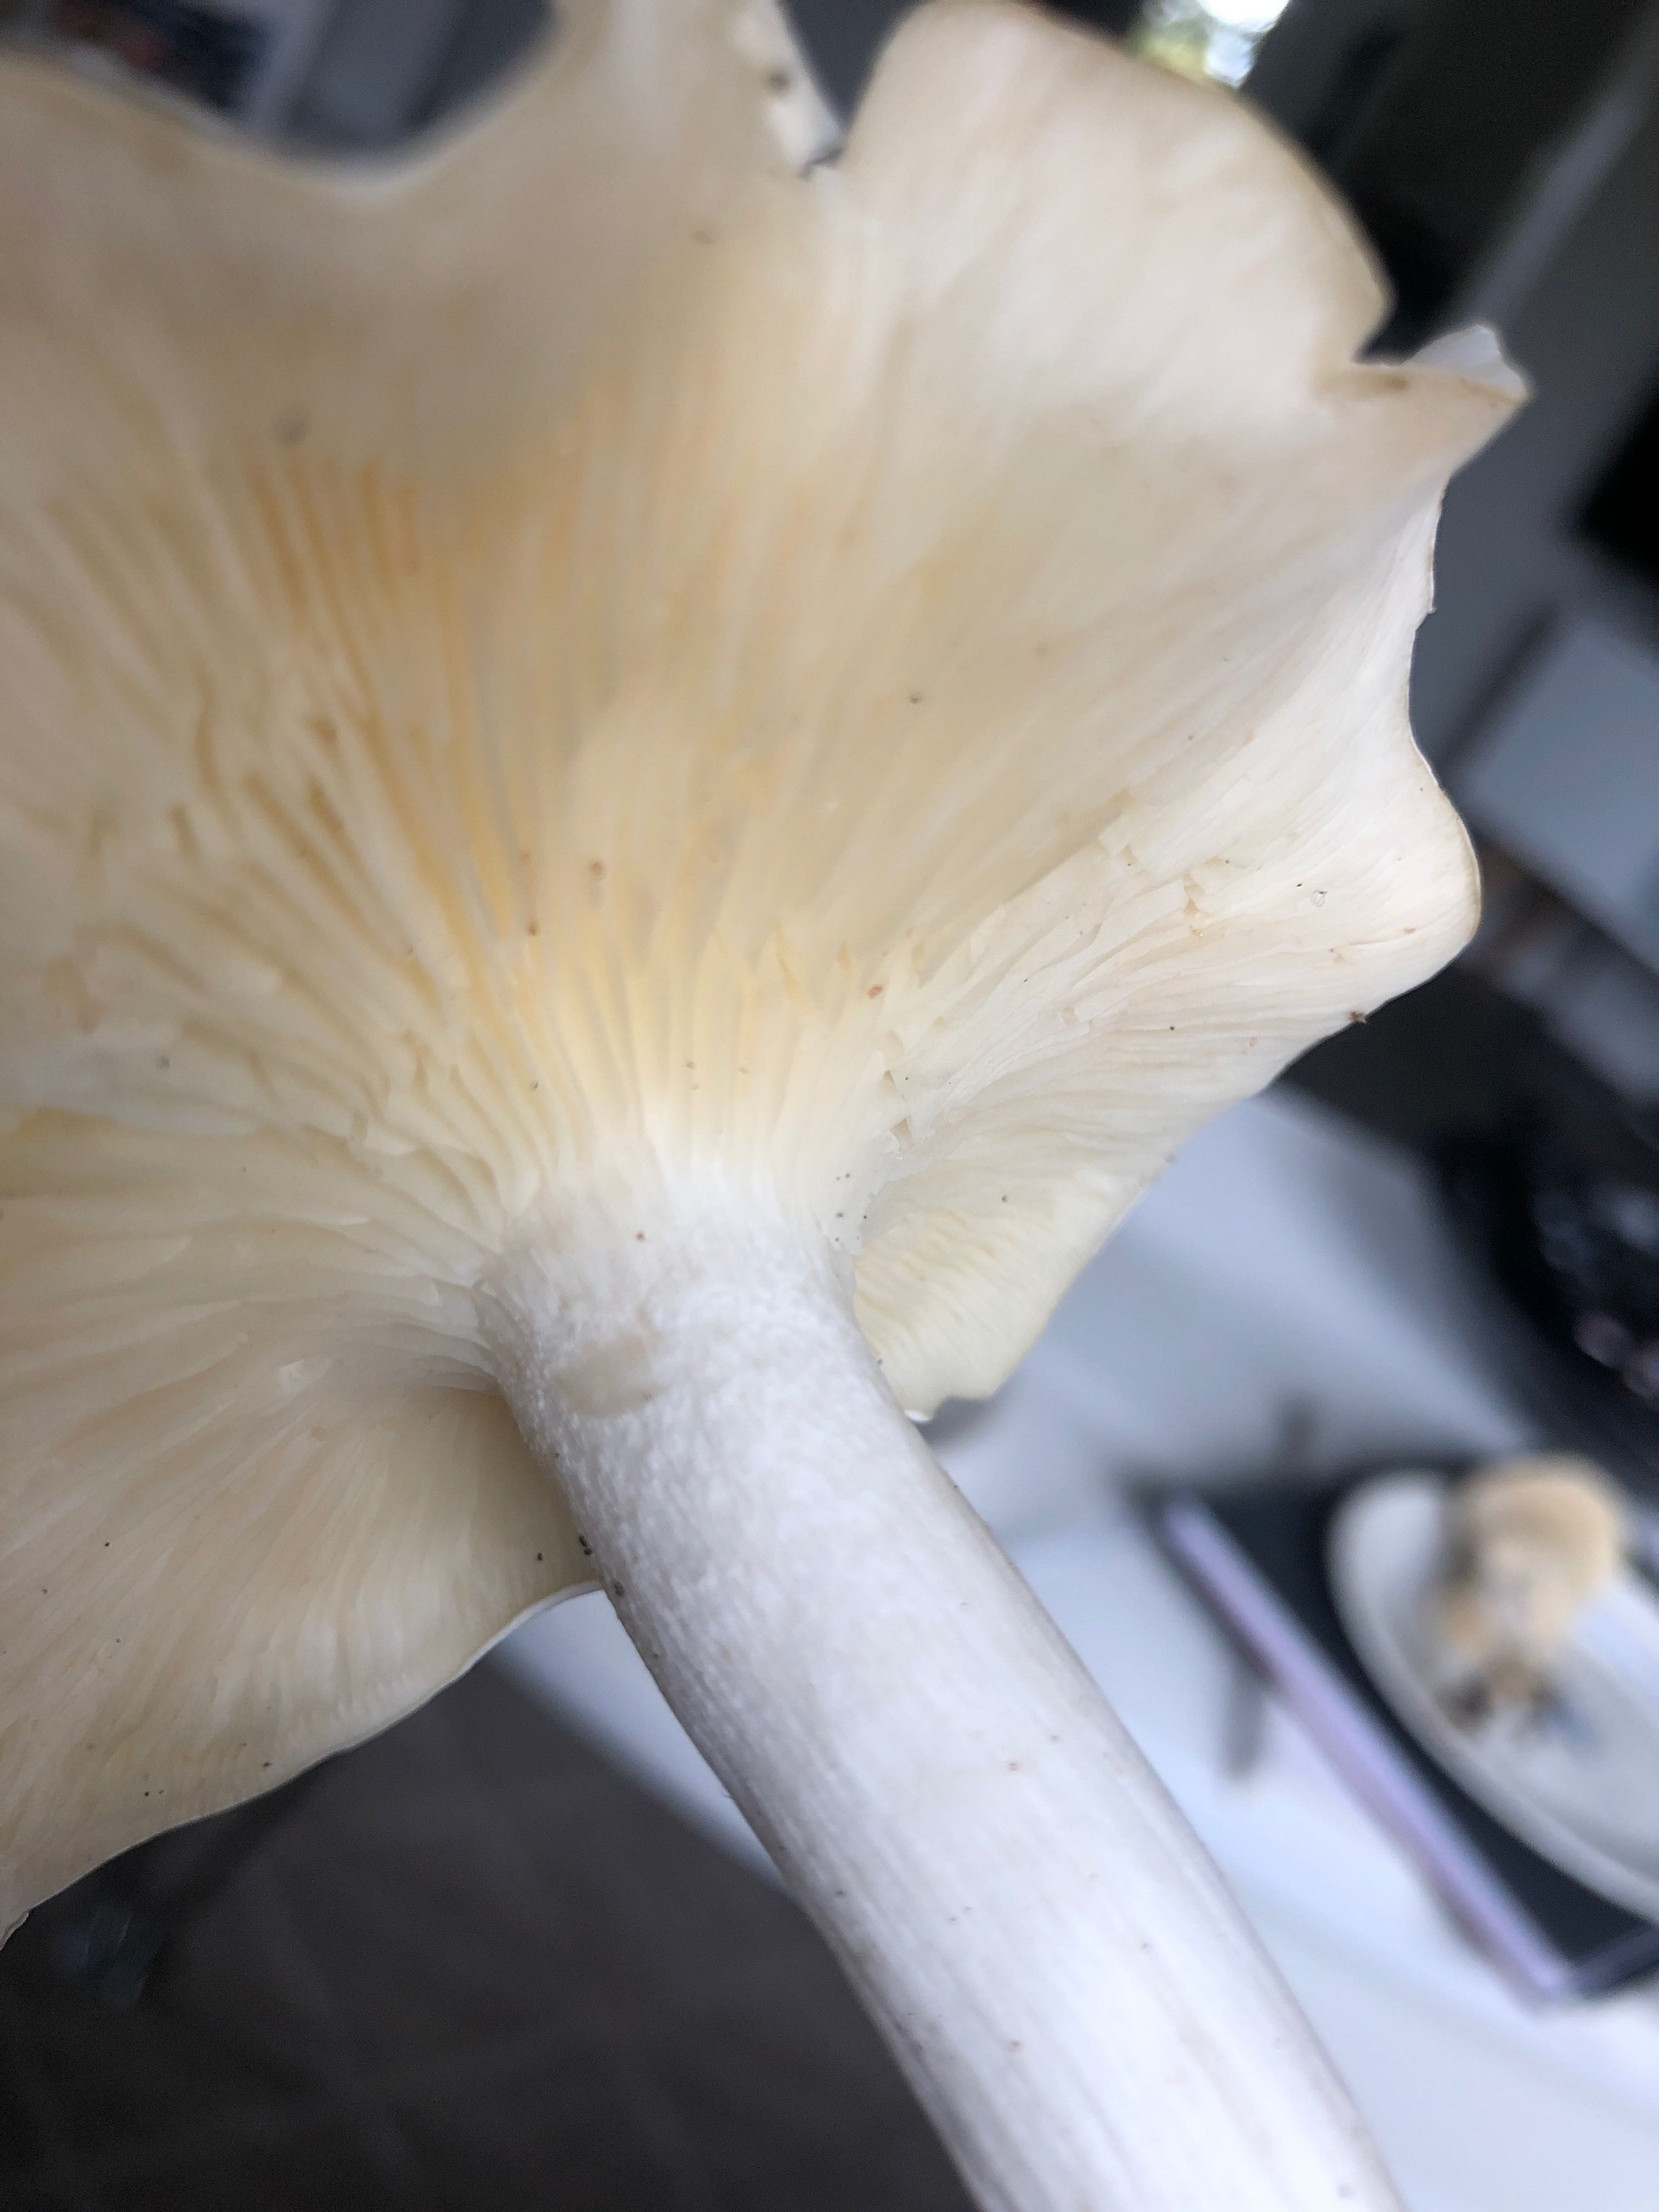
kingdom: Fungi
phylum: Basidiomycota
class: Agaricomycetes
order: Agaricales
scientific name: Agaricales
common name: champignonordenen
